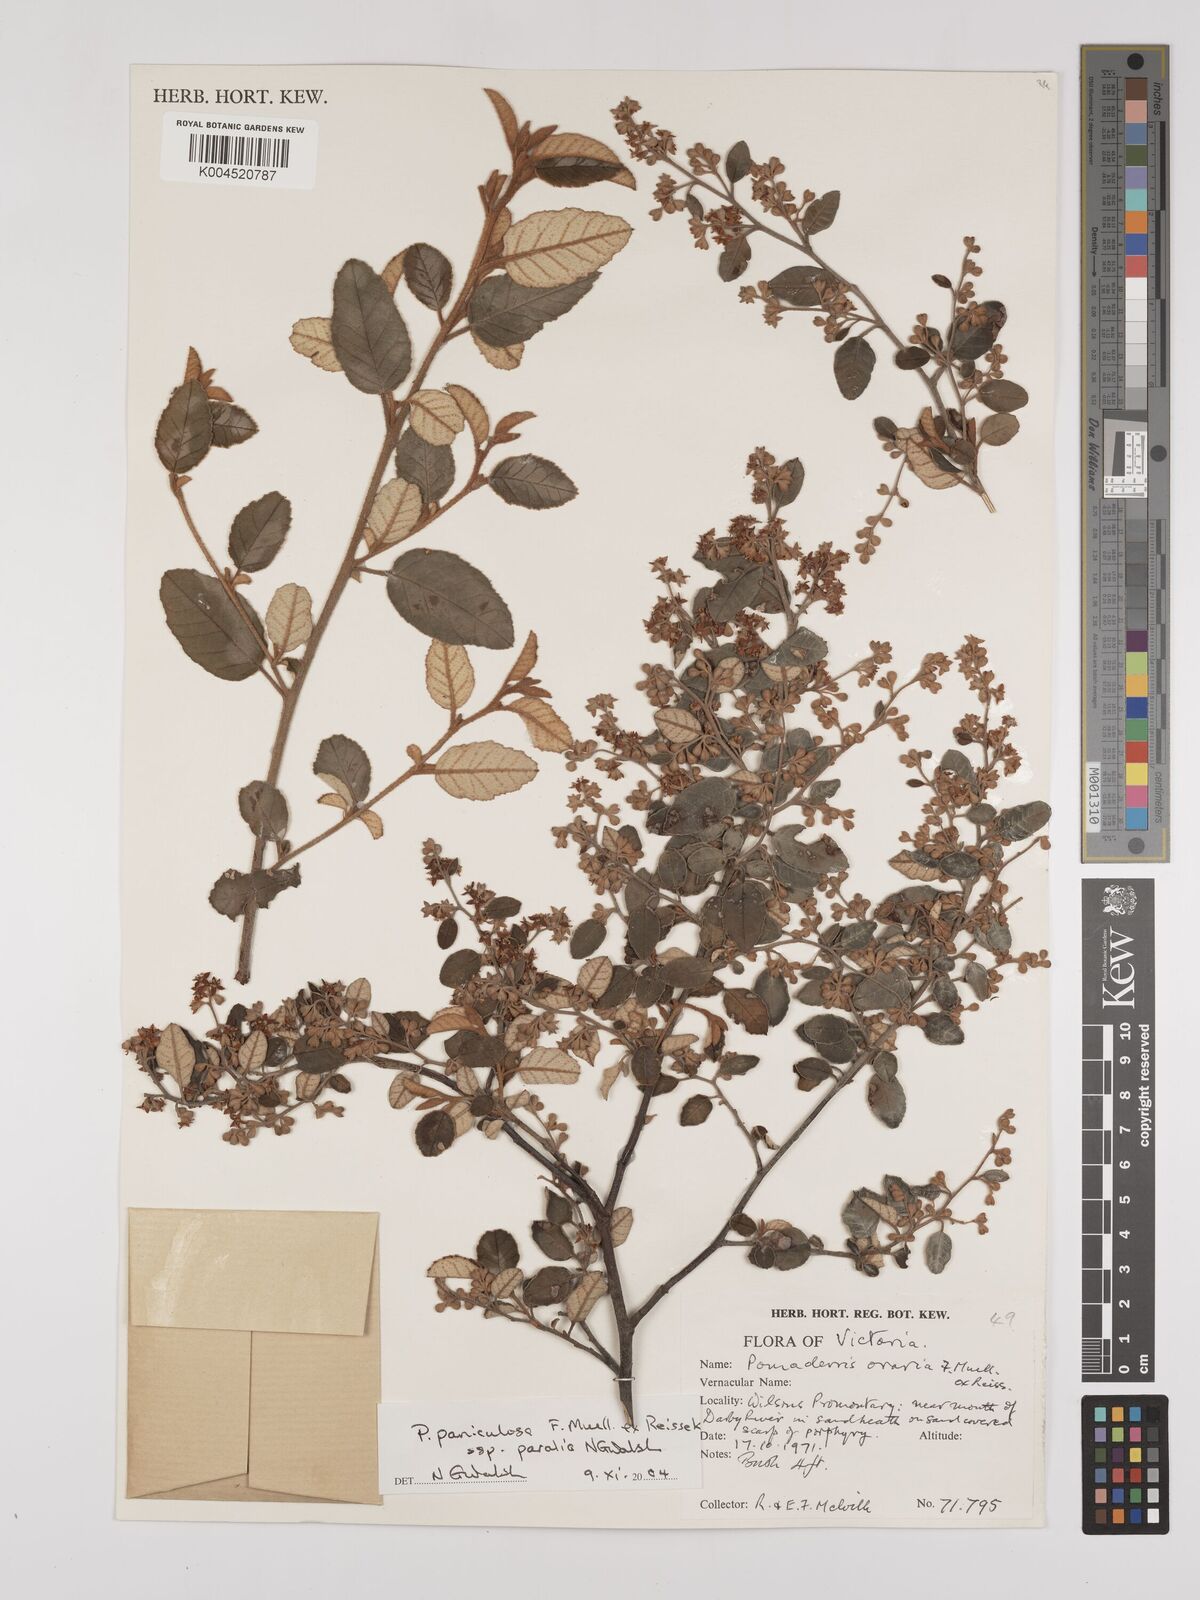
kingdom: Plantae
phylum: Tracheophyta
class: Magnoliopsida
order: Rosales
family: Rhamnaceae
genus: Pomaderris
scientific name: Pomaderris paniculosa
